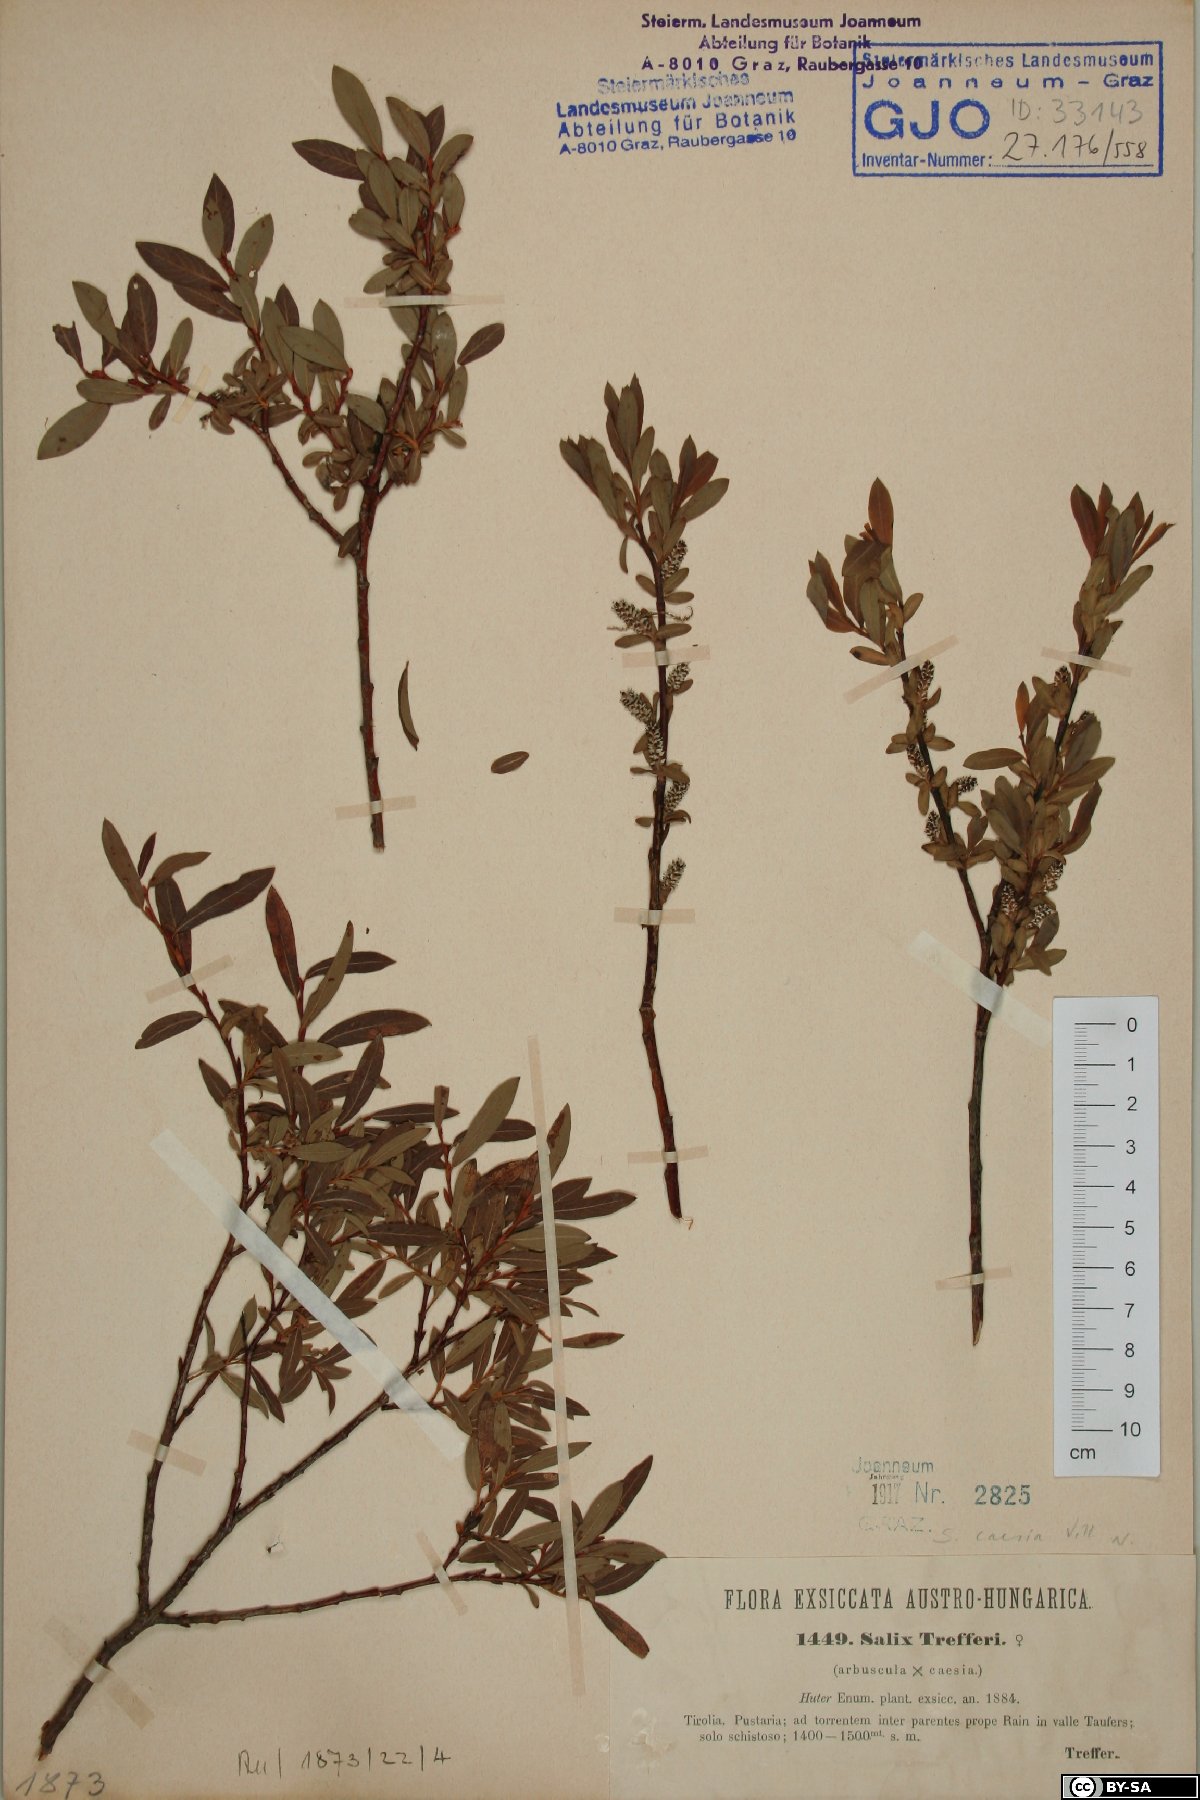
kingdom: Plantae
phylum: Tracheophyta
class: Magnoliopsida
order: Malpighiales
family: Salicaceae
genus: Salix
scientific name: Salix caesia
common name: Blue willow
